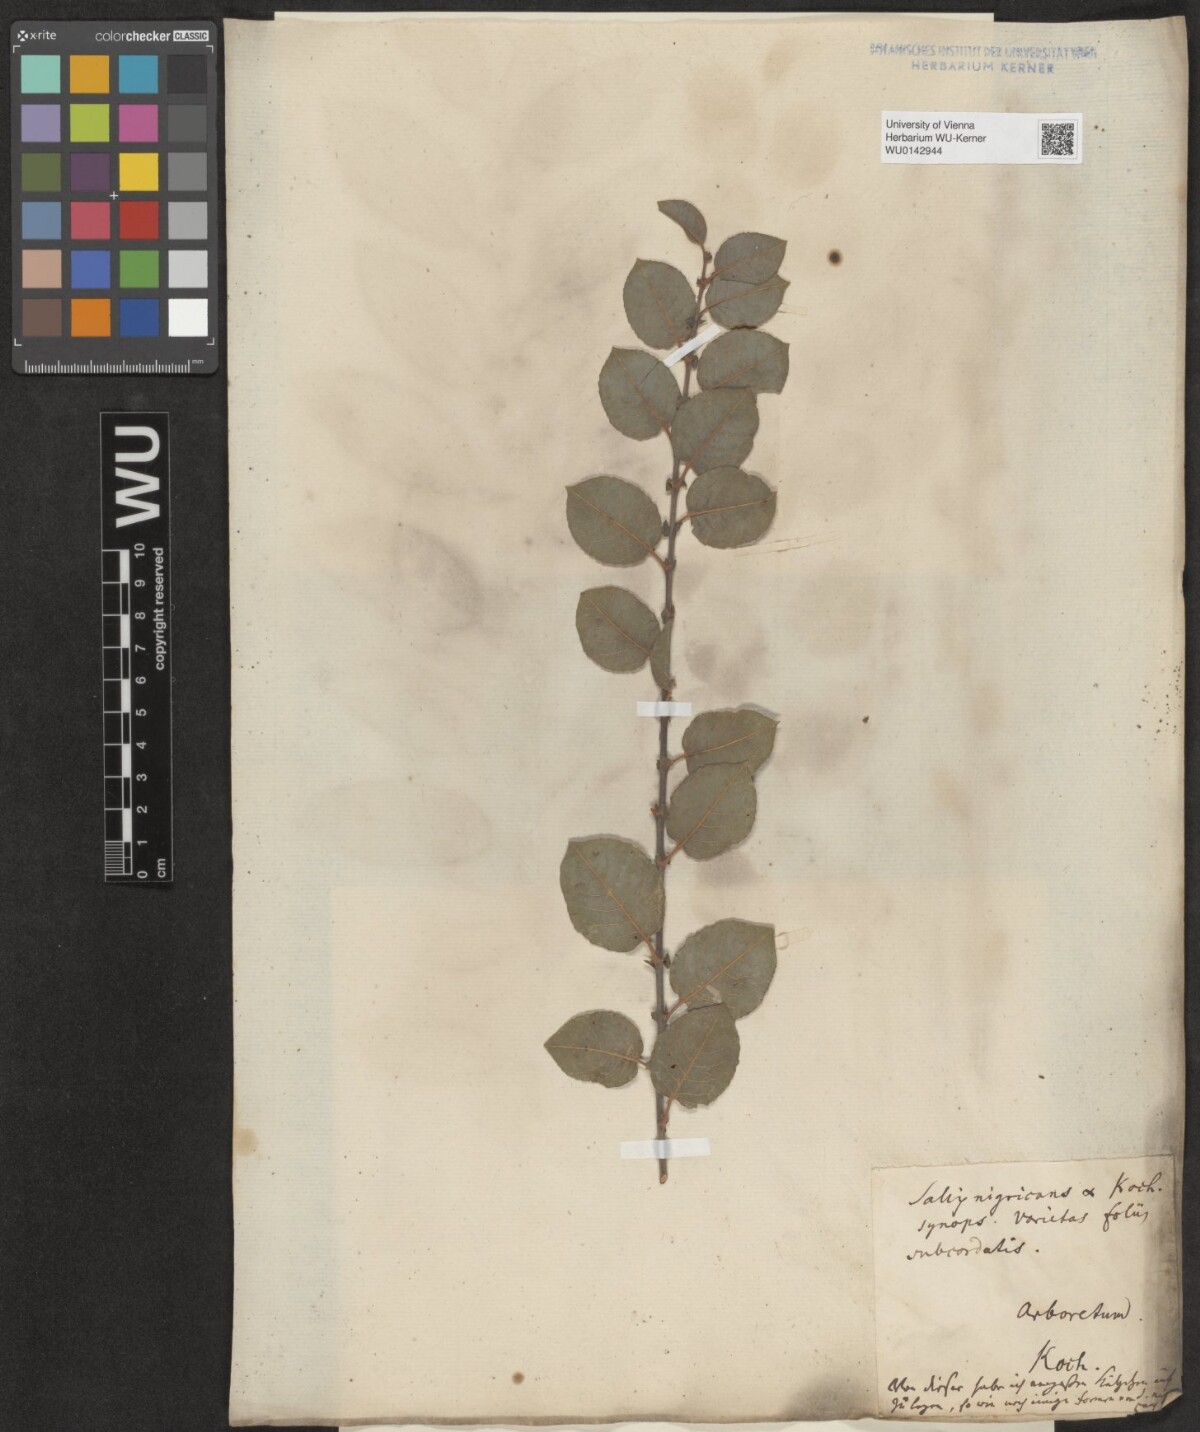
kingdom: Plantae
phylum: Tracheophyta
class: Magnoliopsida
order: Malpighiales
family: Salicaceae
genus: Salix
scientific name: Salix myrsinifolia
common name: Dark-leaved willow
